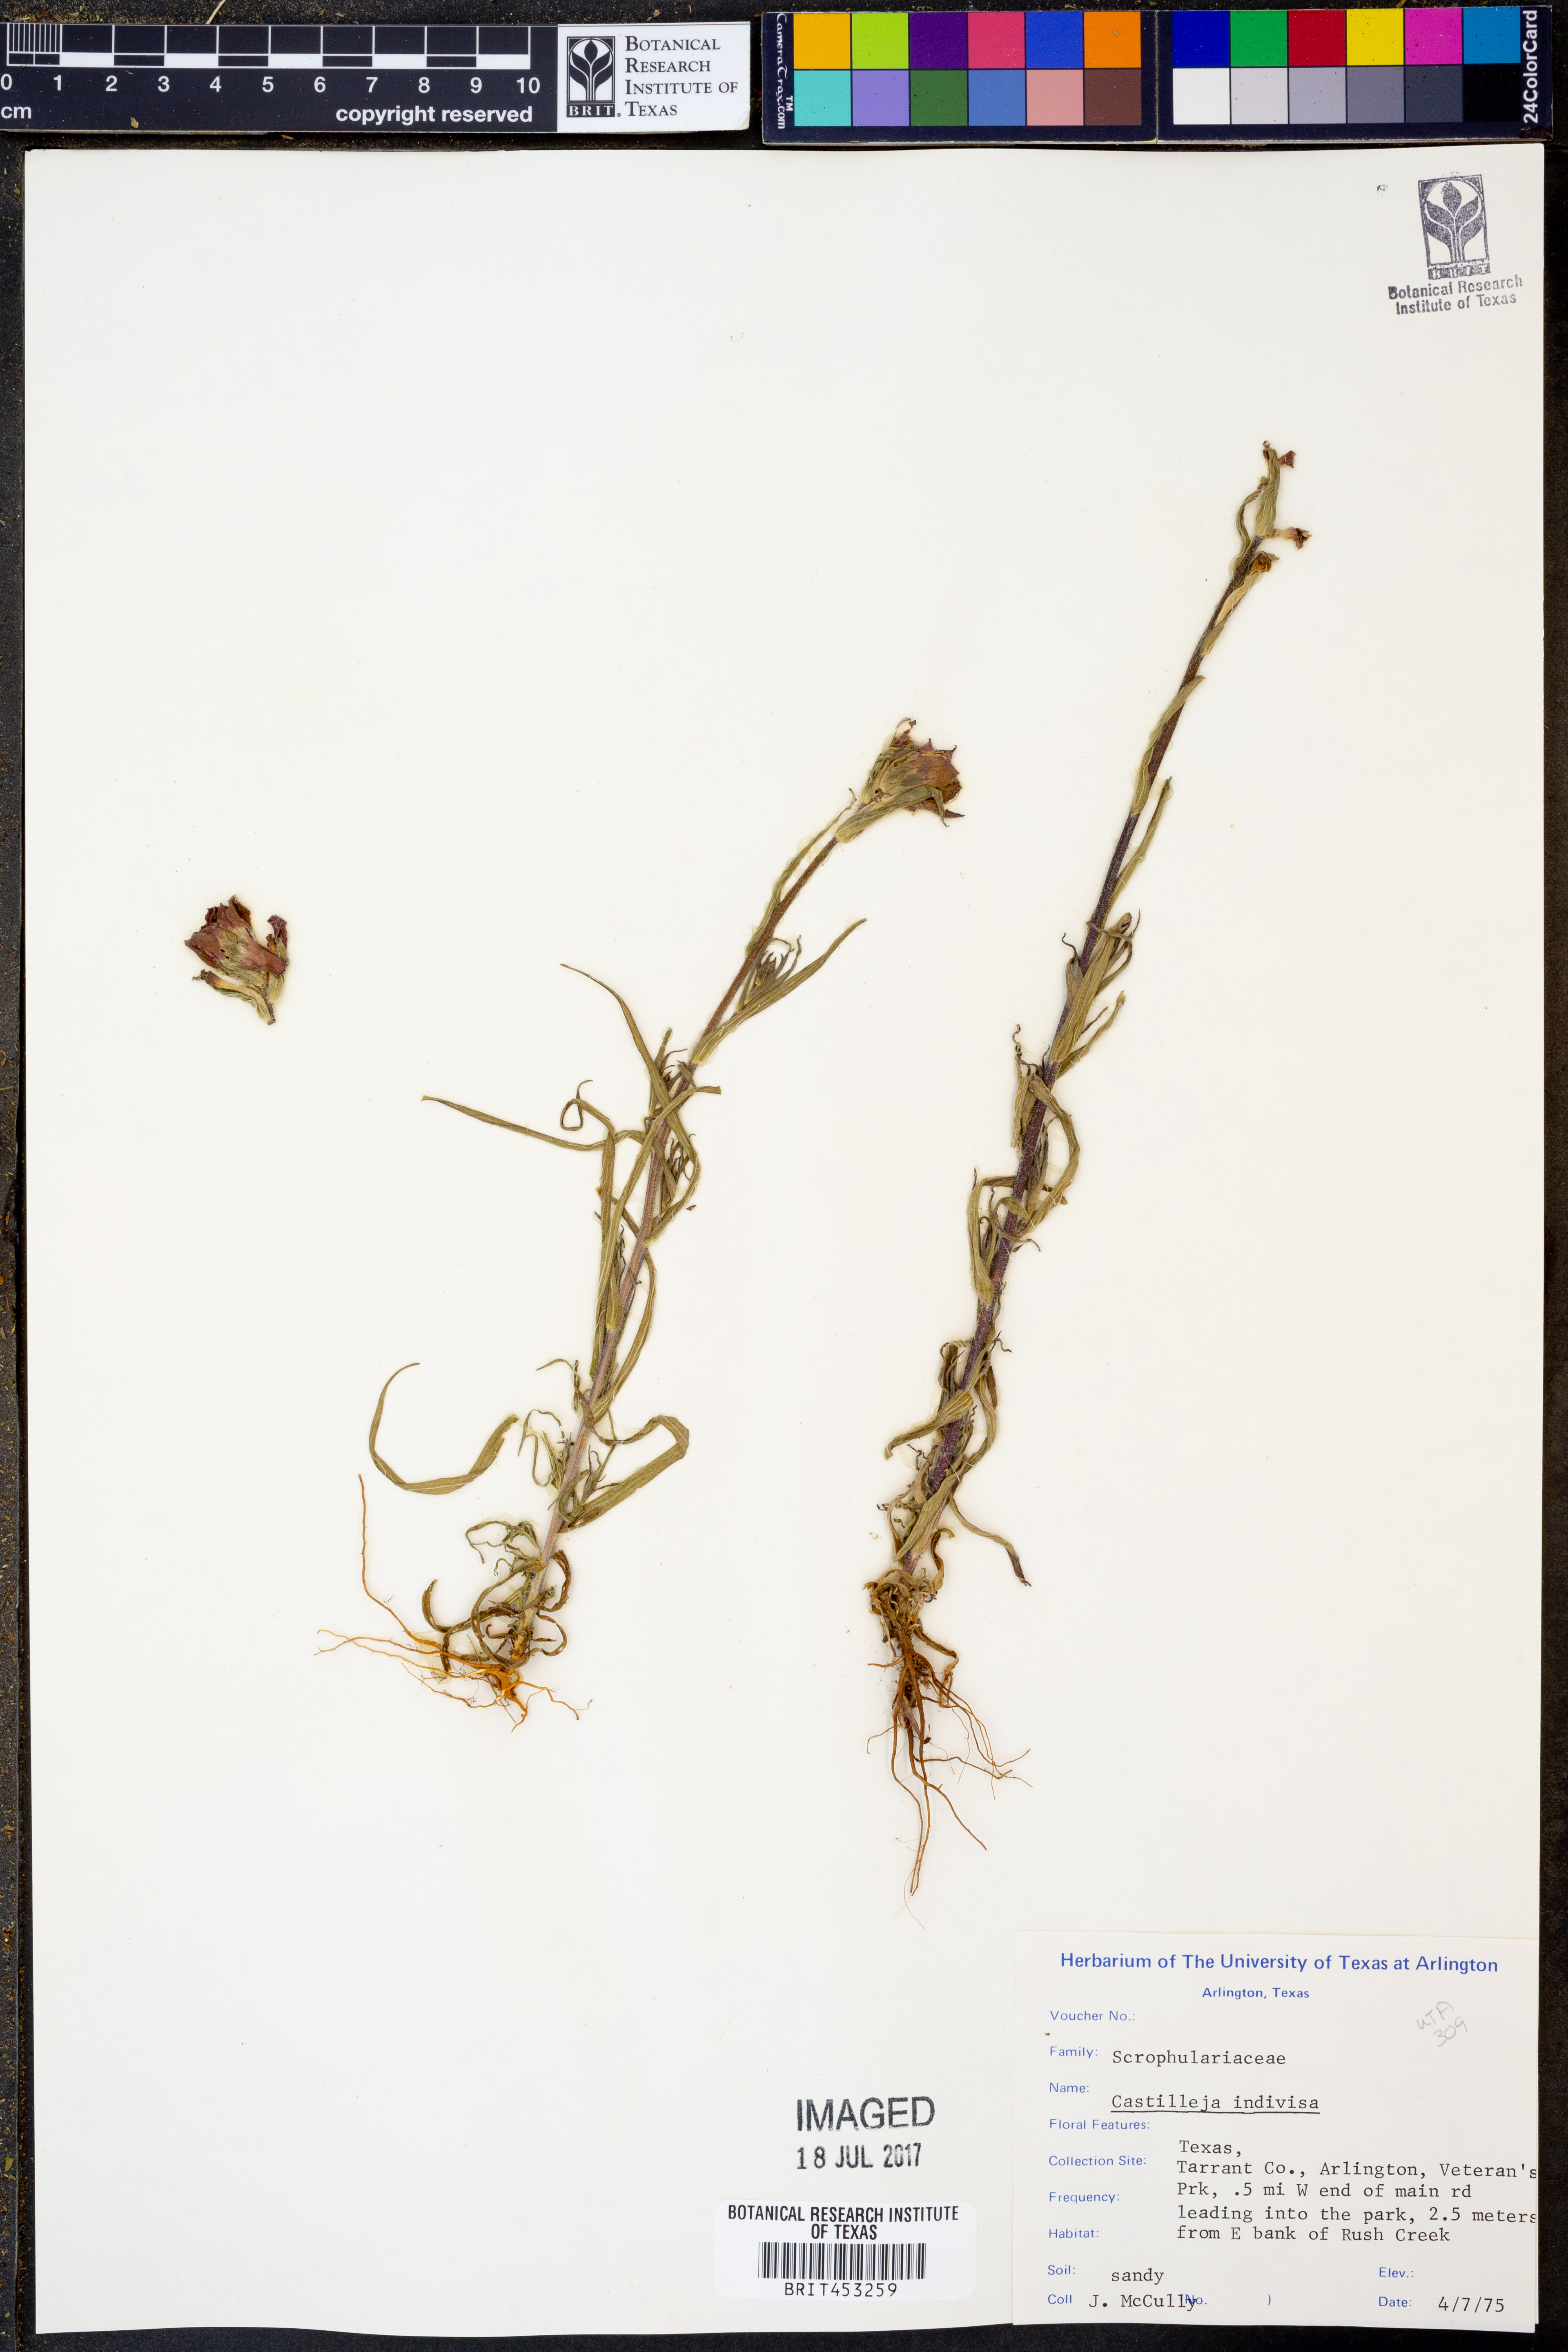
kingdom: Plantae
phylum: Tracheophyta
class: Magnoliopsida
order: Lamiales
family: Orobanchaceae
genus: Castilleja
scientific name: Castilleja indivisa
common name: Texas paintbrush
